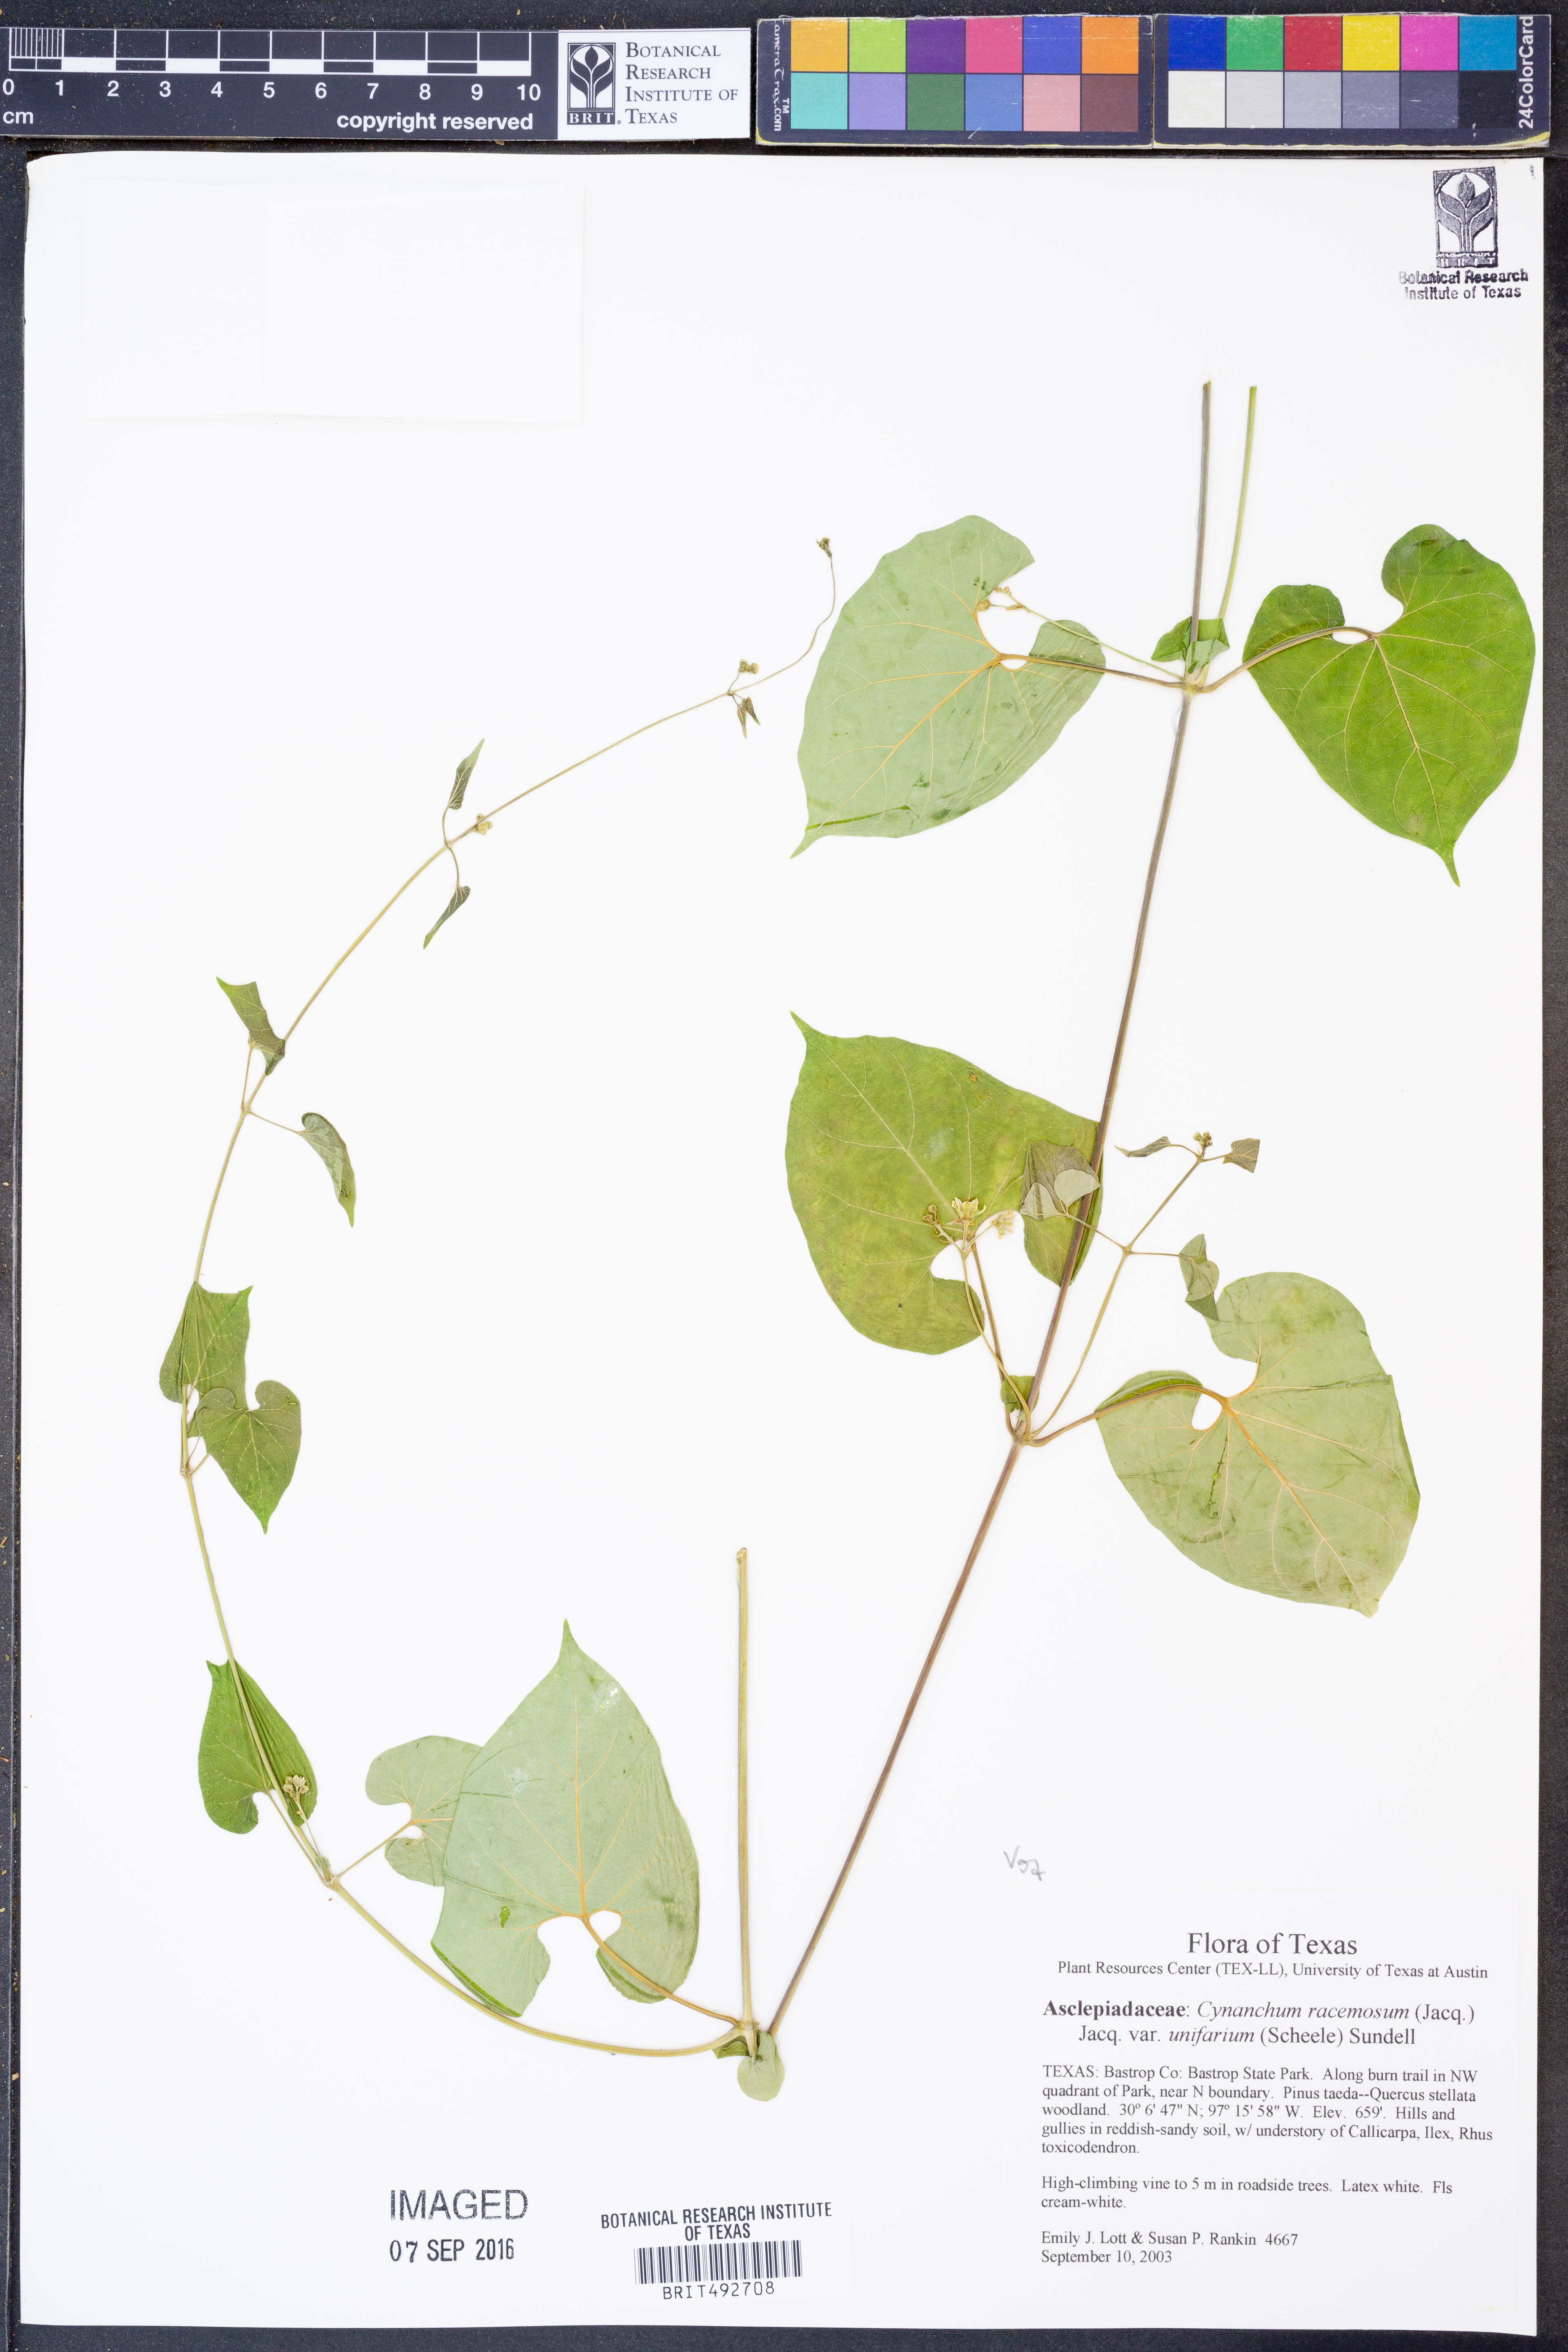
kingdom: Plantae
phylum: Tracheophyta
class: Magnoliopsida
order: Gentianales
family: Apocynaceae
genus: Cynanchum
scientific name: Cynanchum racemosum
